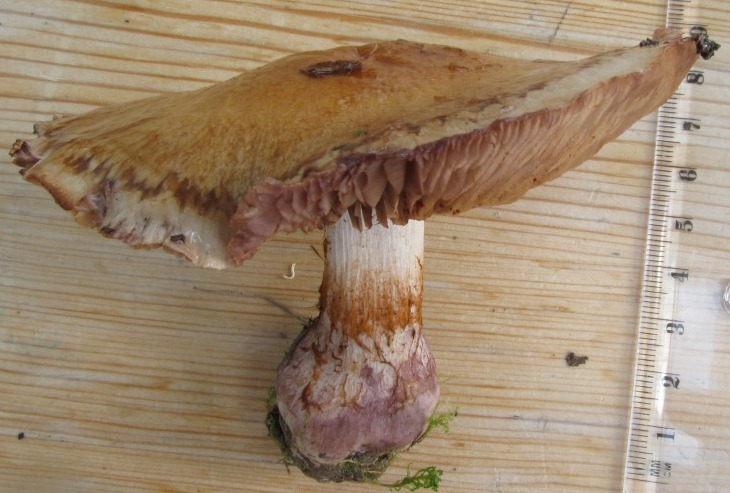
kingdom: Fungi
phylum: Basidiomycota
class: Agaricomycetes
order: Agaricales
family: Cortinariaceae
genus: Thaxterogaster
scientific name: Thaxterogaster subpurpurascens
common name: mørkblånende slørhat
